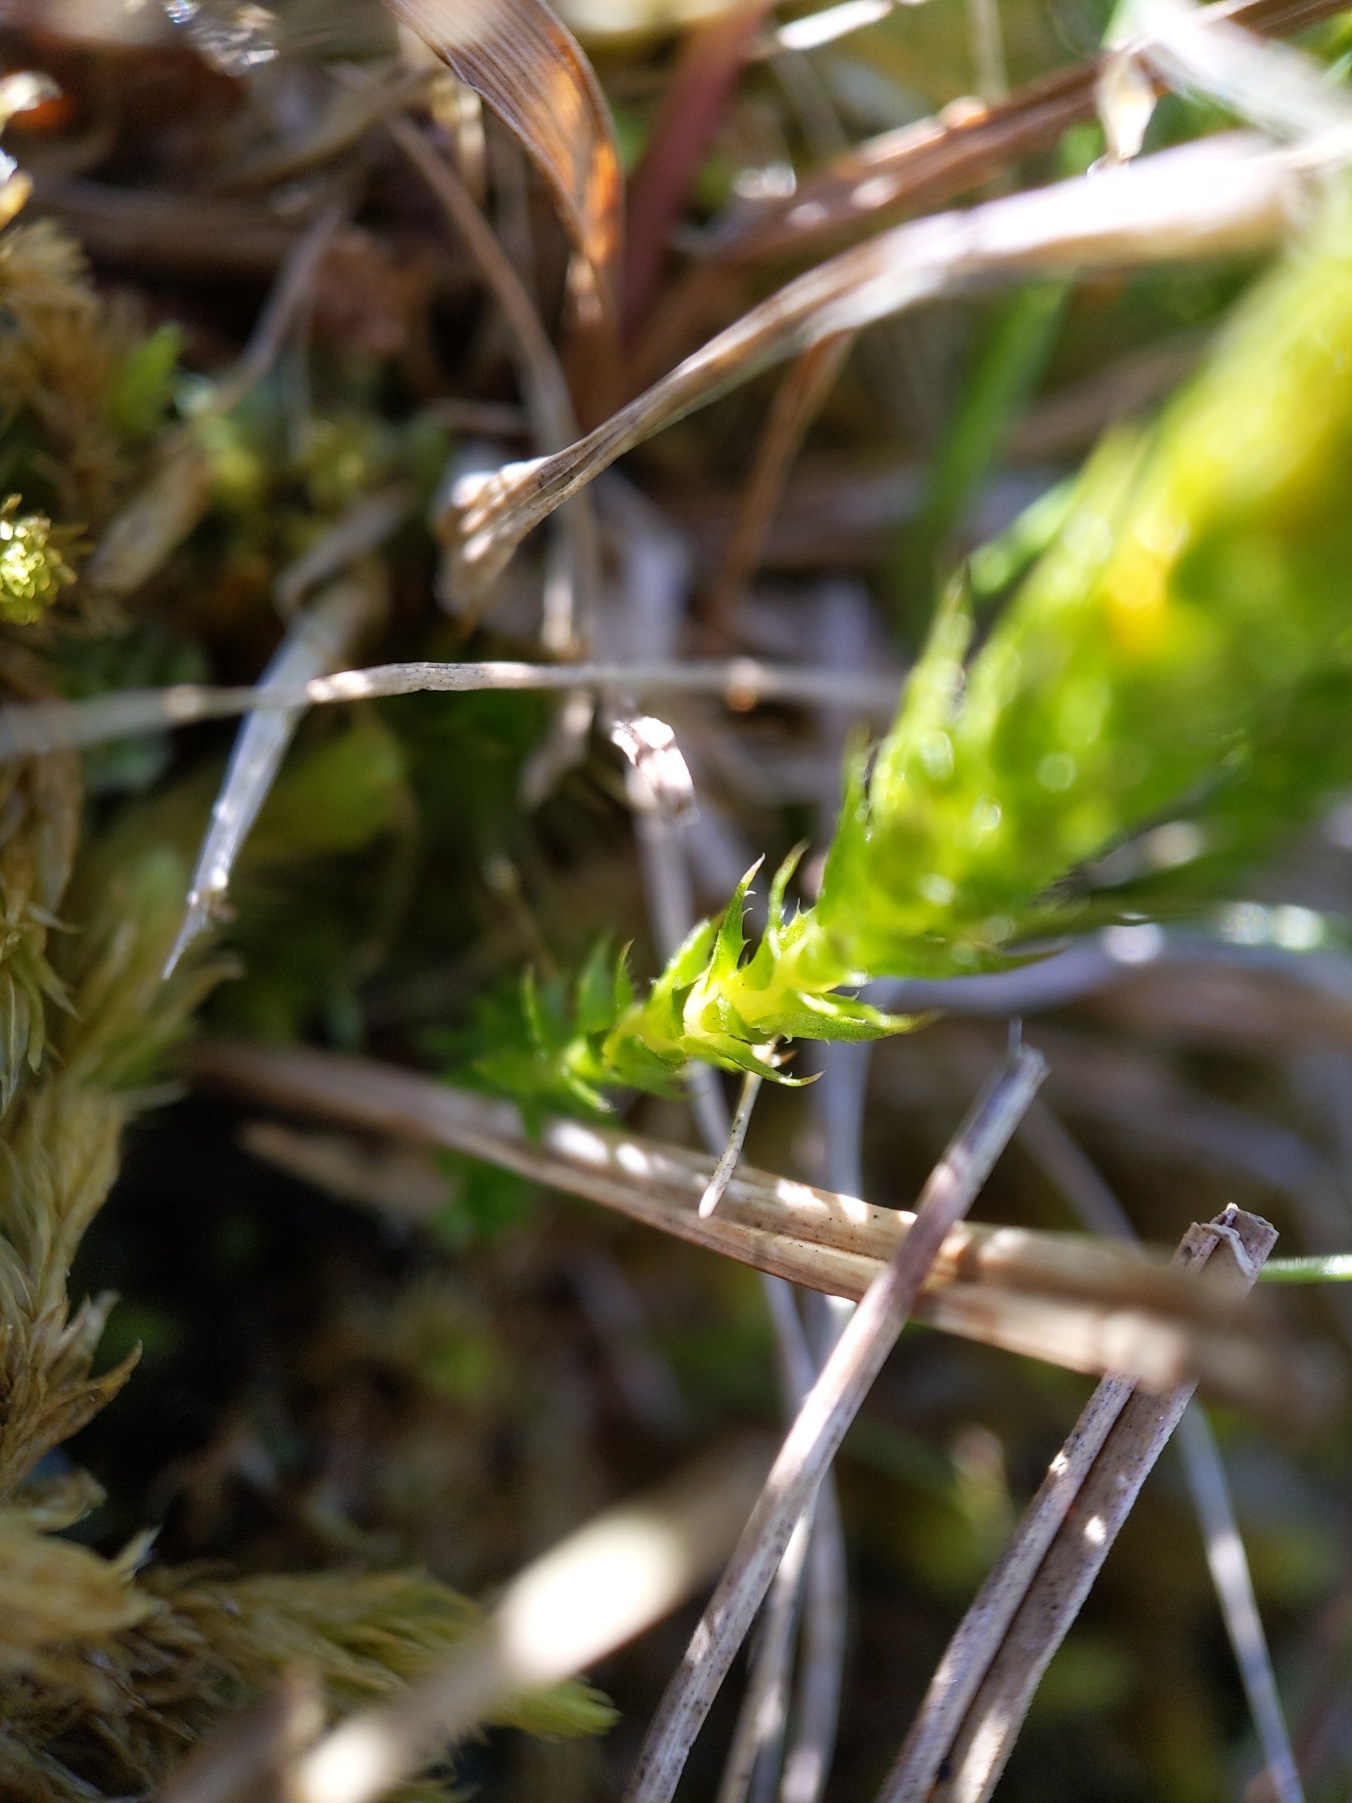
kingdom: Plantae
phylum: Tracheophyta
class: Lycopodiopsida
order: Selaginellales
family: Selaginellaceae
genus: Selaginella
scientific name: Selaginella selaginoides
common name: Dværgulvefod
